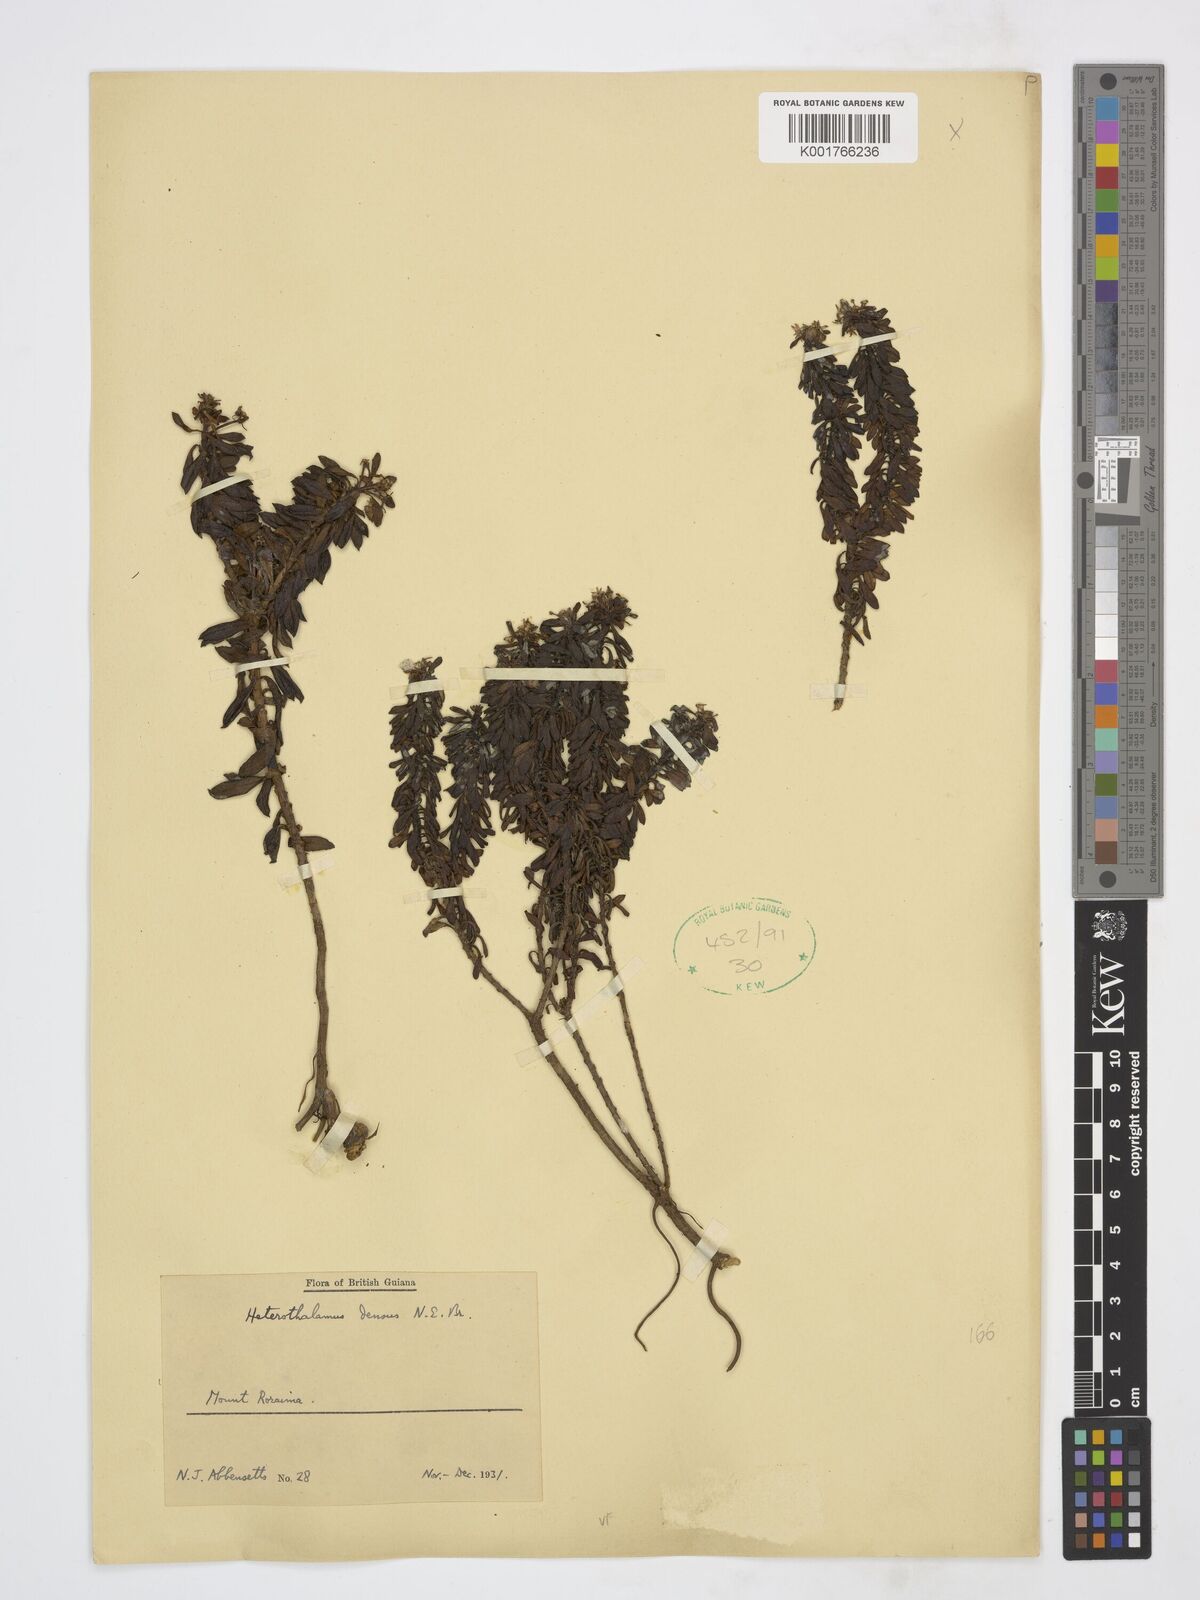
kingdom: Plantae
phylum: Tracheophyta
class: Magnoliopsida
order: Asterales
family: Asteraceae
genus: Pseudobaccharis
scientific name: Pseudobaccharis densa
